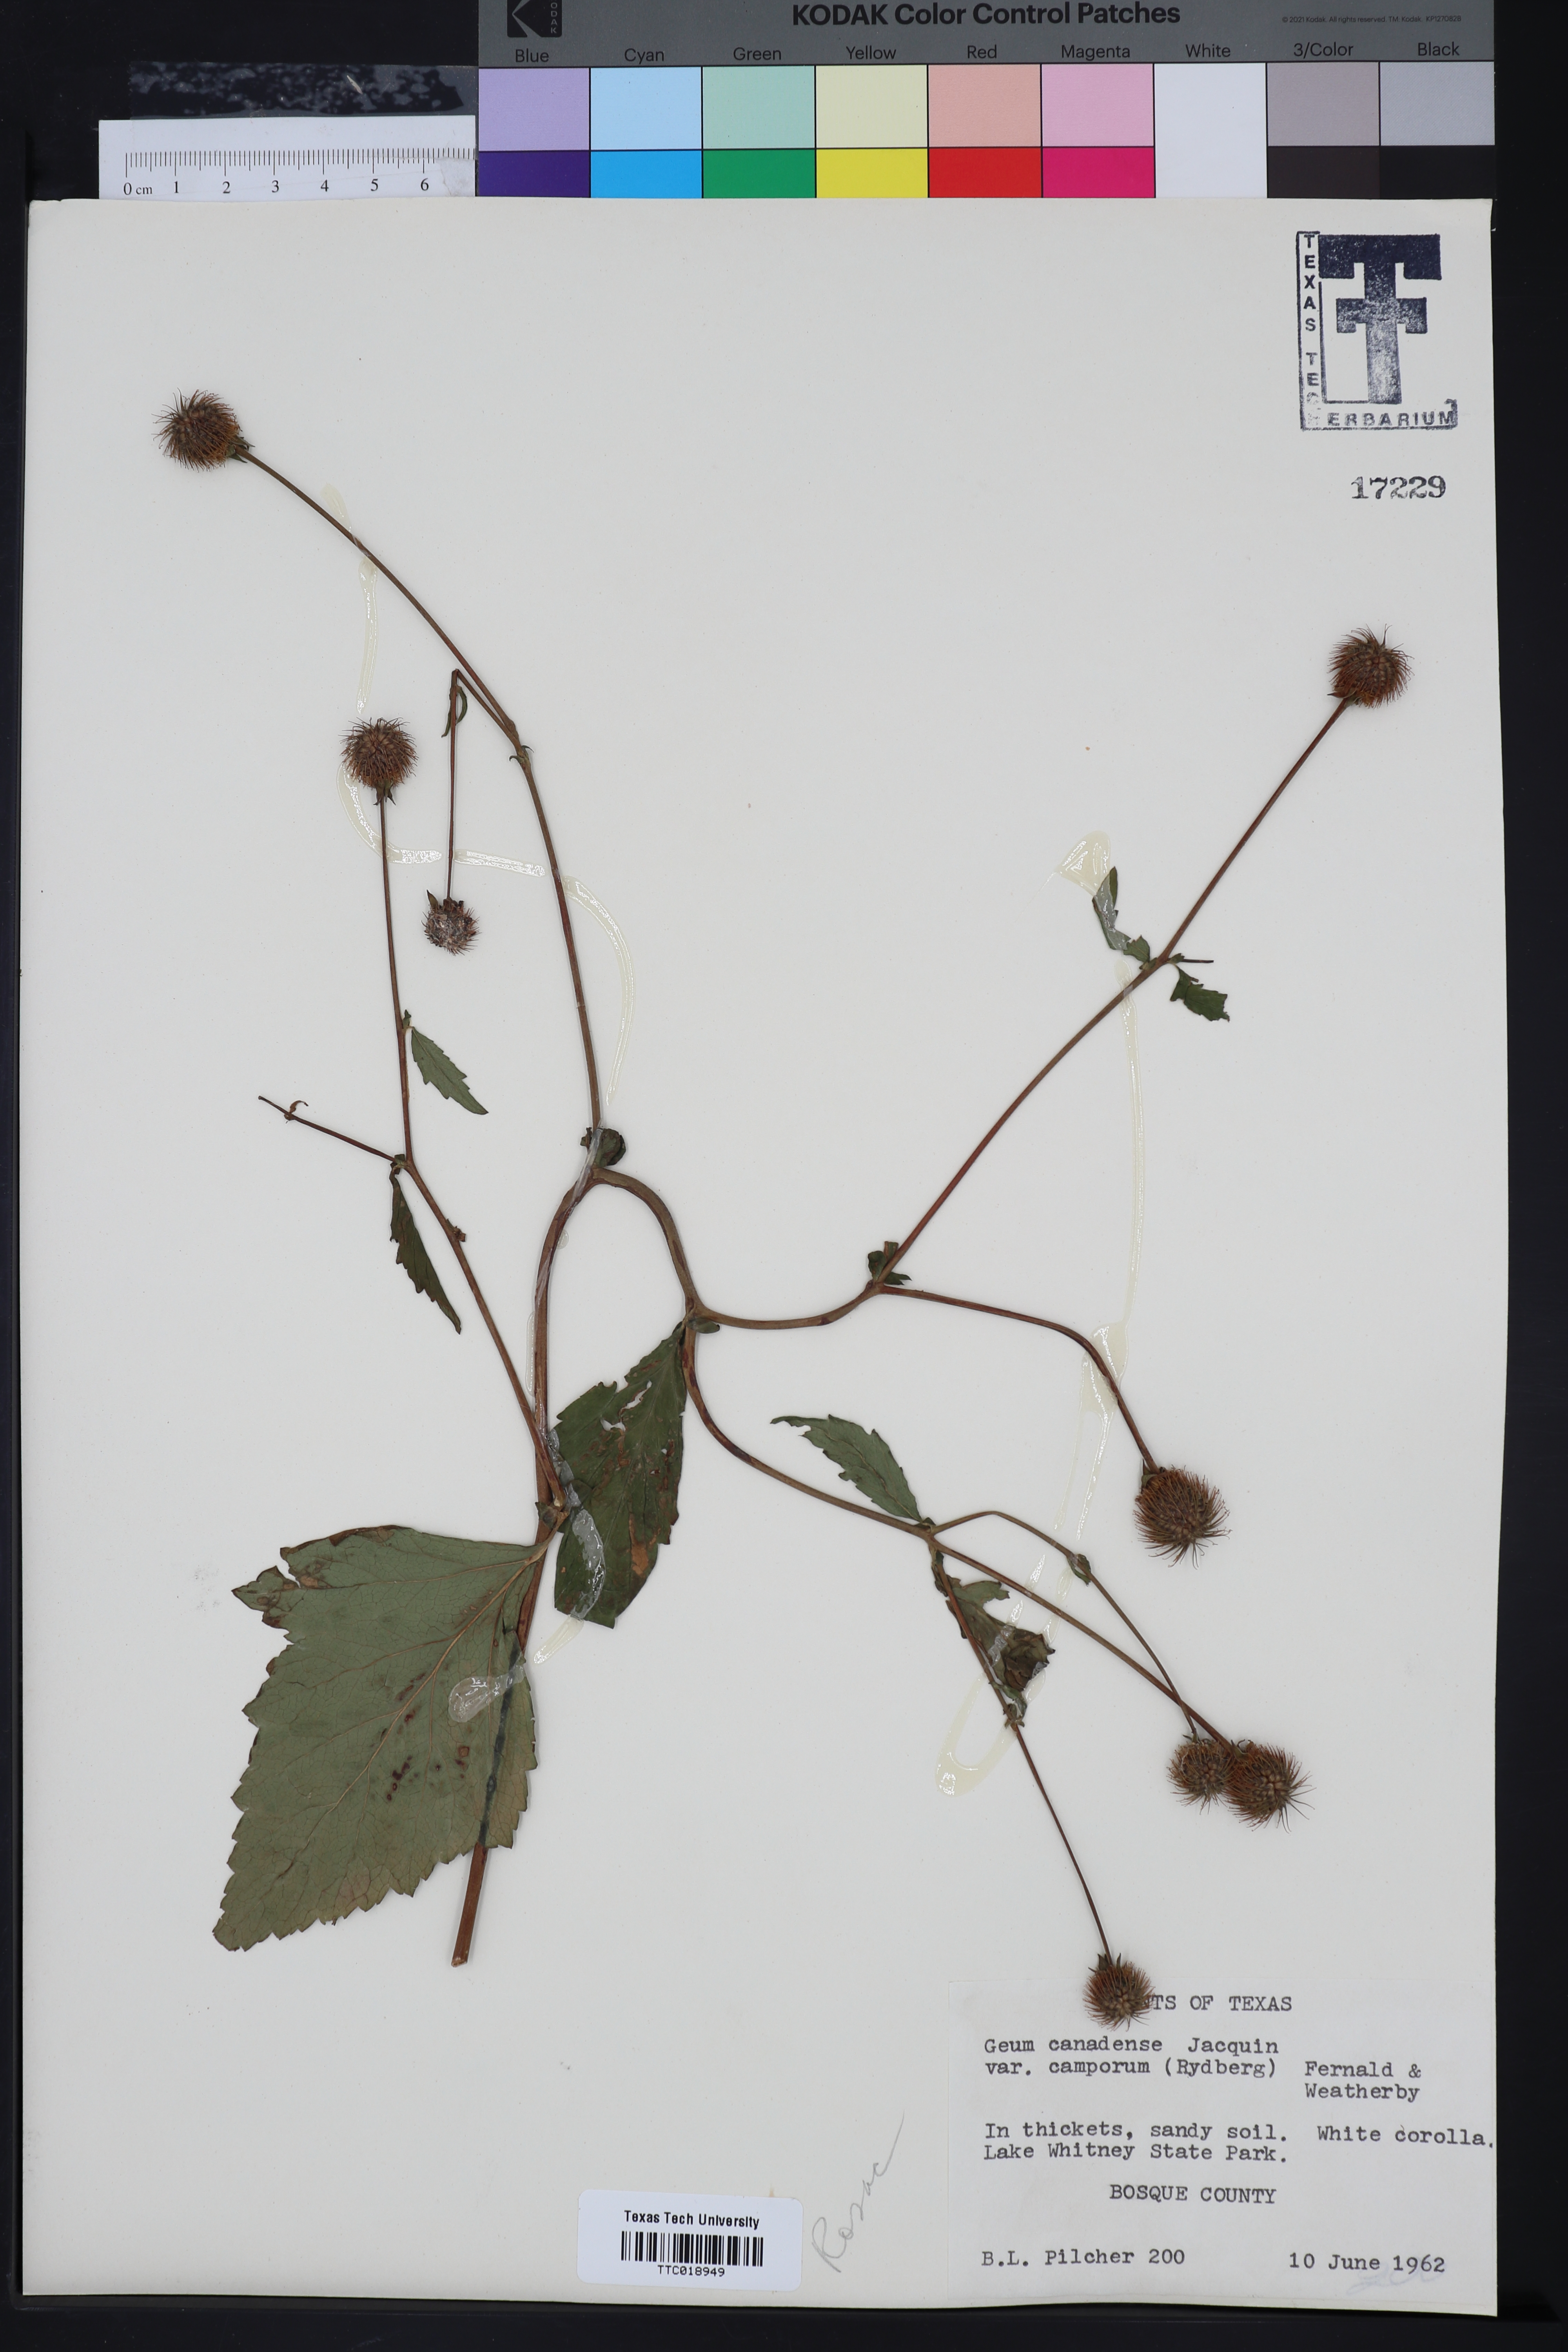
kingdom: Plantae
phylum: Tracheophyta
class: Magnoliopsida
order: Rosales
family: Rosaceae
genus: Geum
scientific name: Geum canadense
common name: White avens
